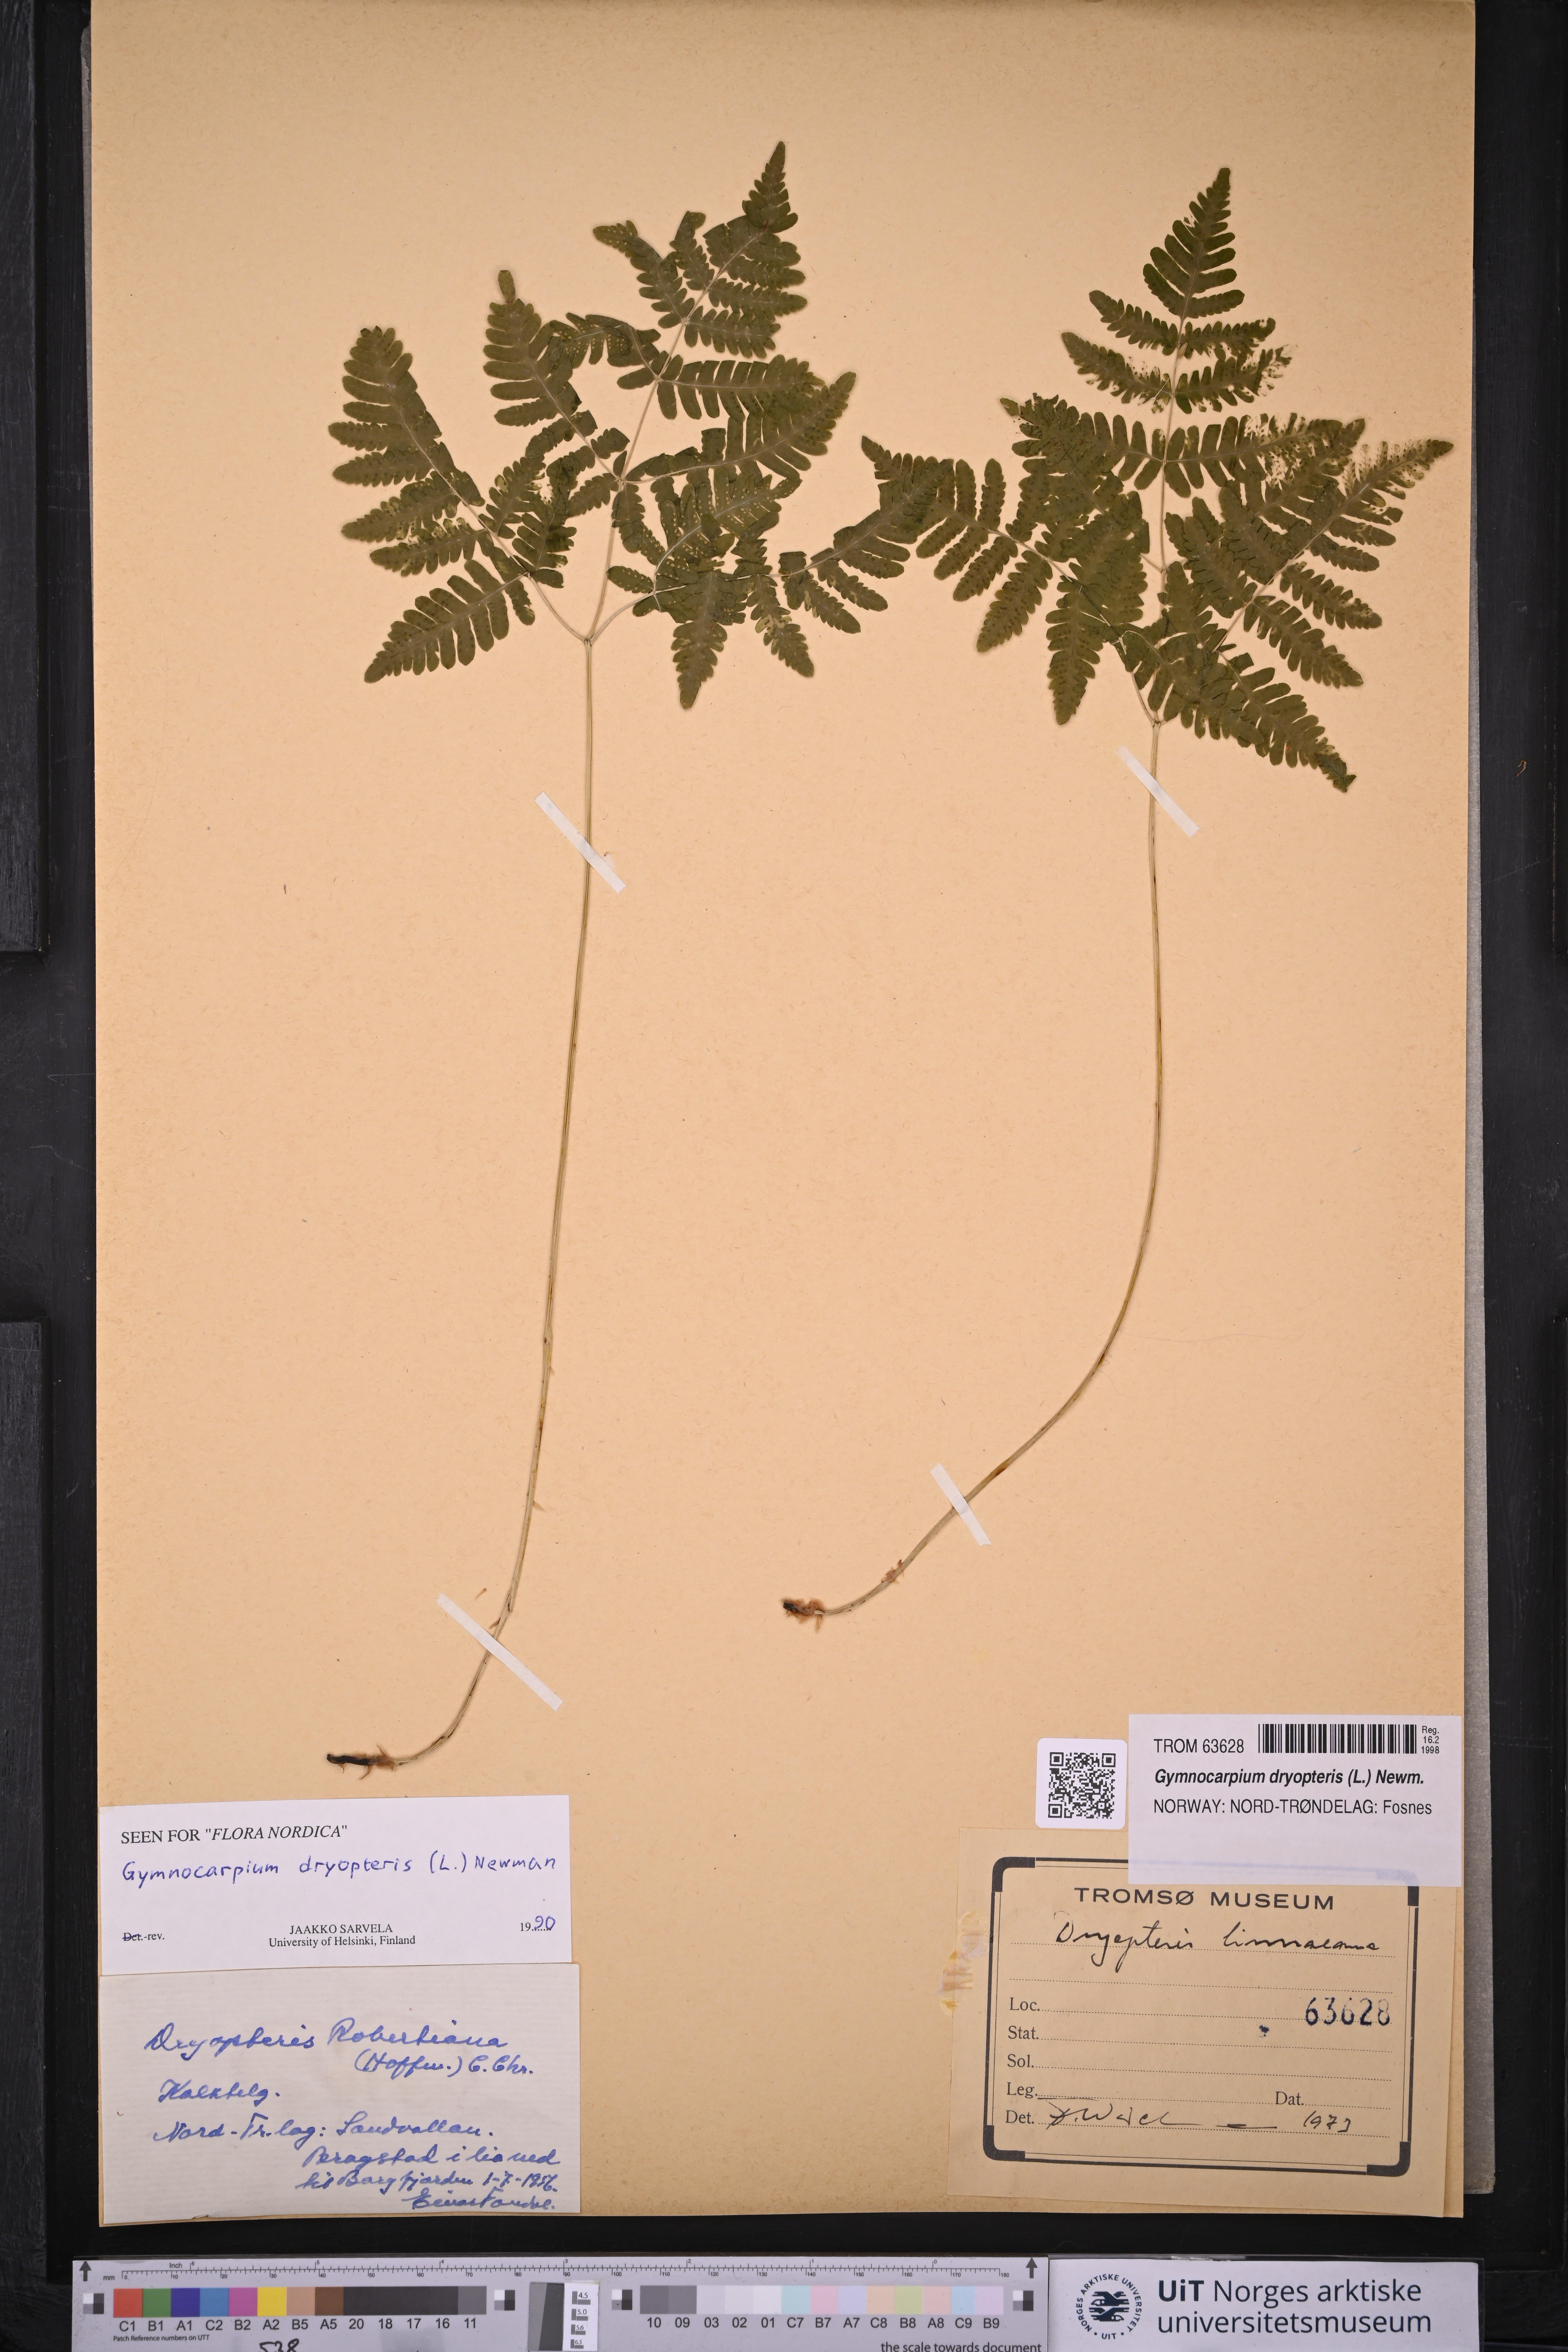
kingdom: Plantae
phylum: Tracheophyta
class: Polypodiopsida
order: Polypodiales
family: Cystopteridaceae
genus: Gymnocarpium
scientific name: Gymnocarpium dryopteris
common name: Oak fern
